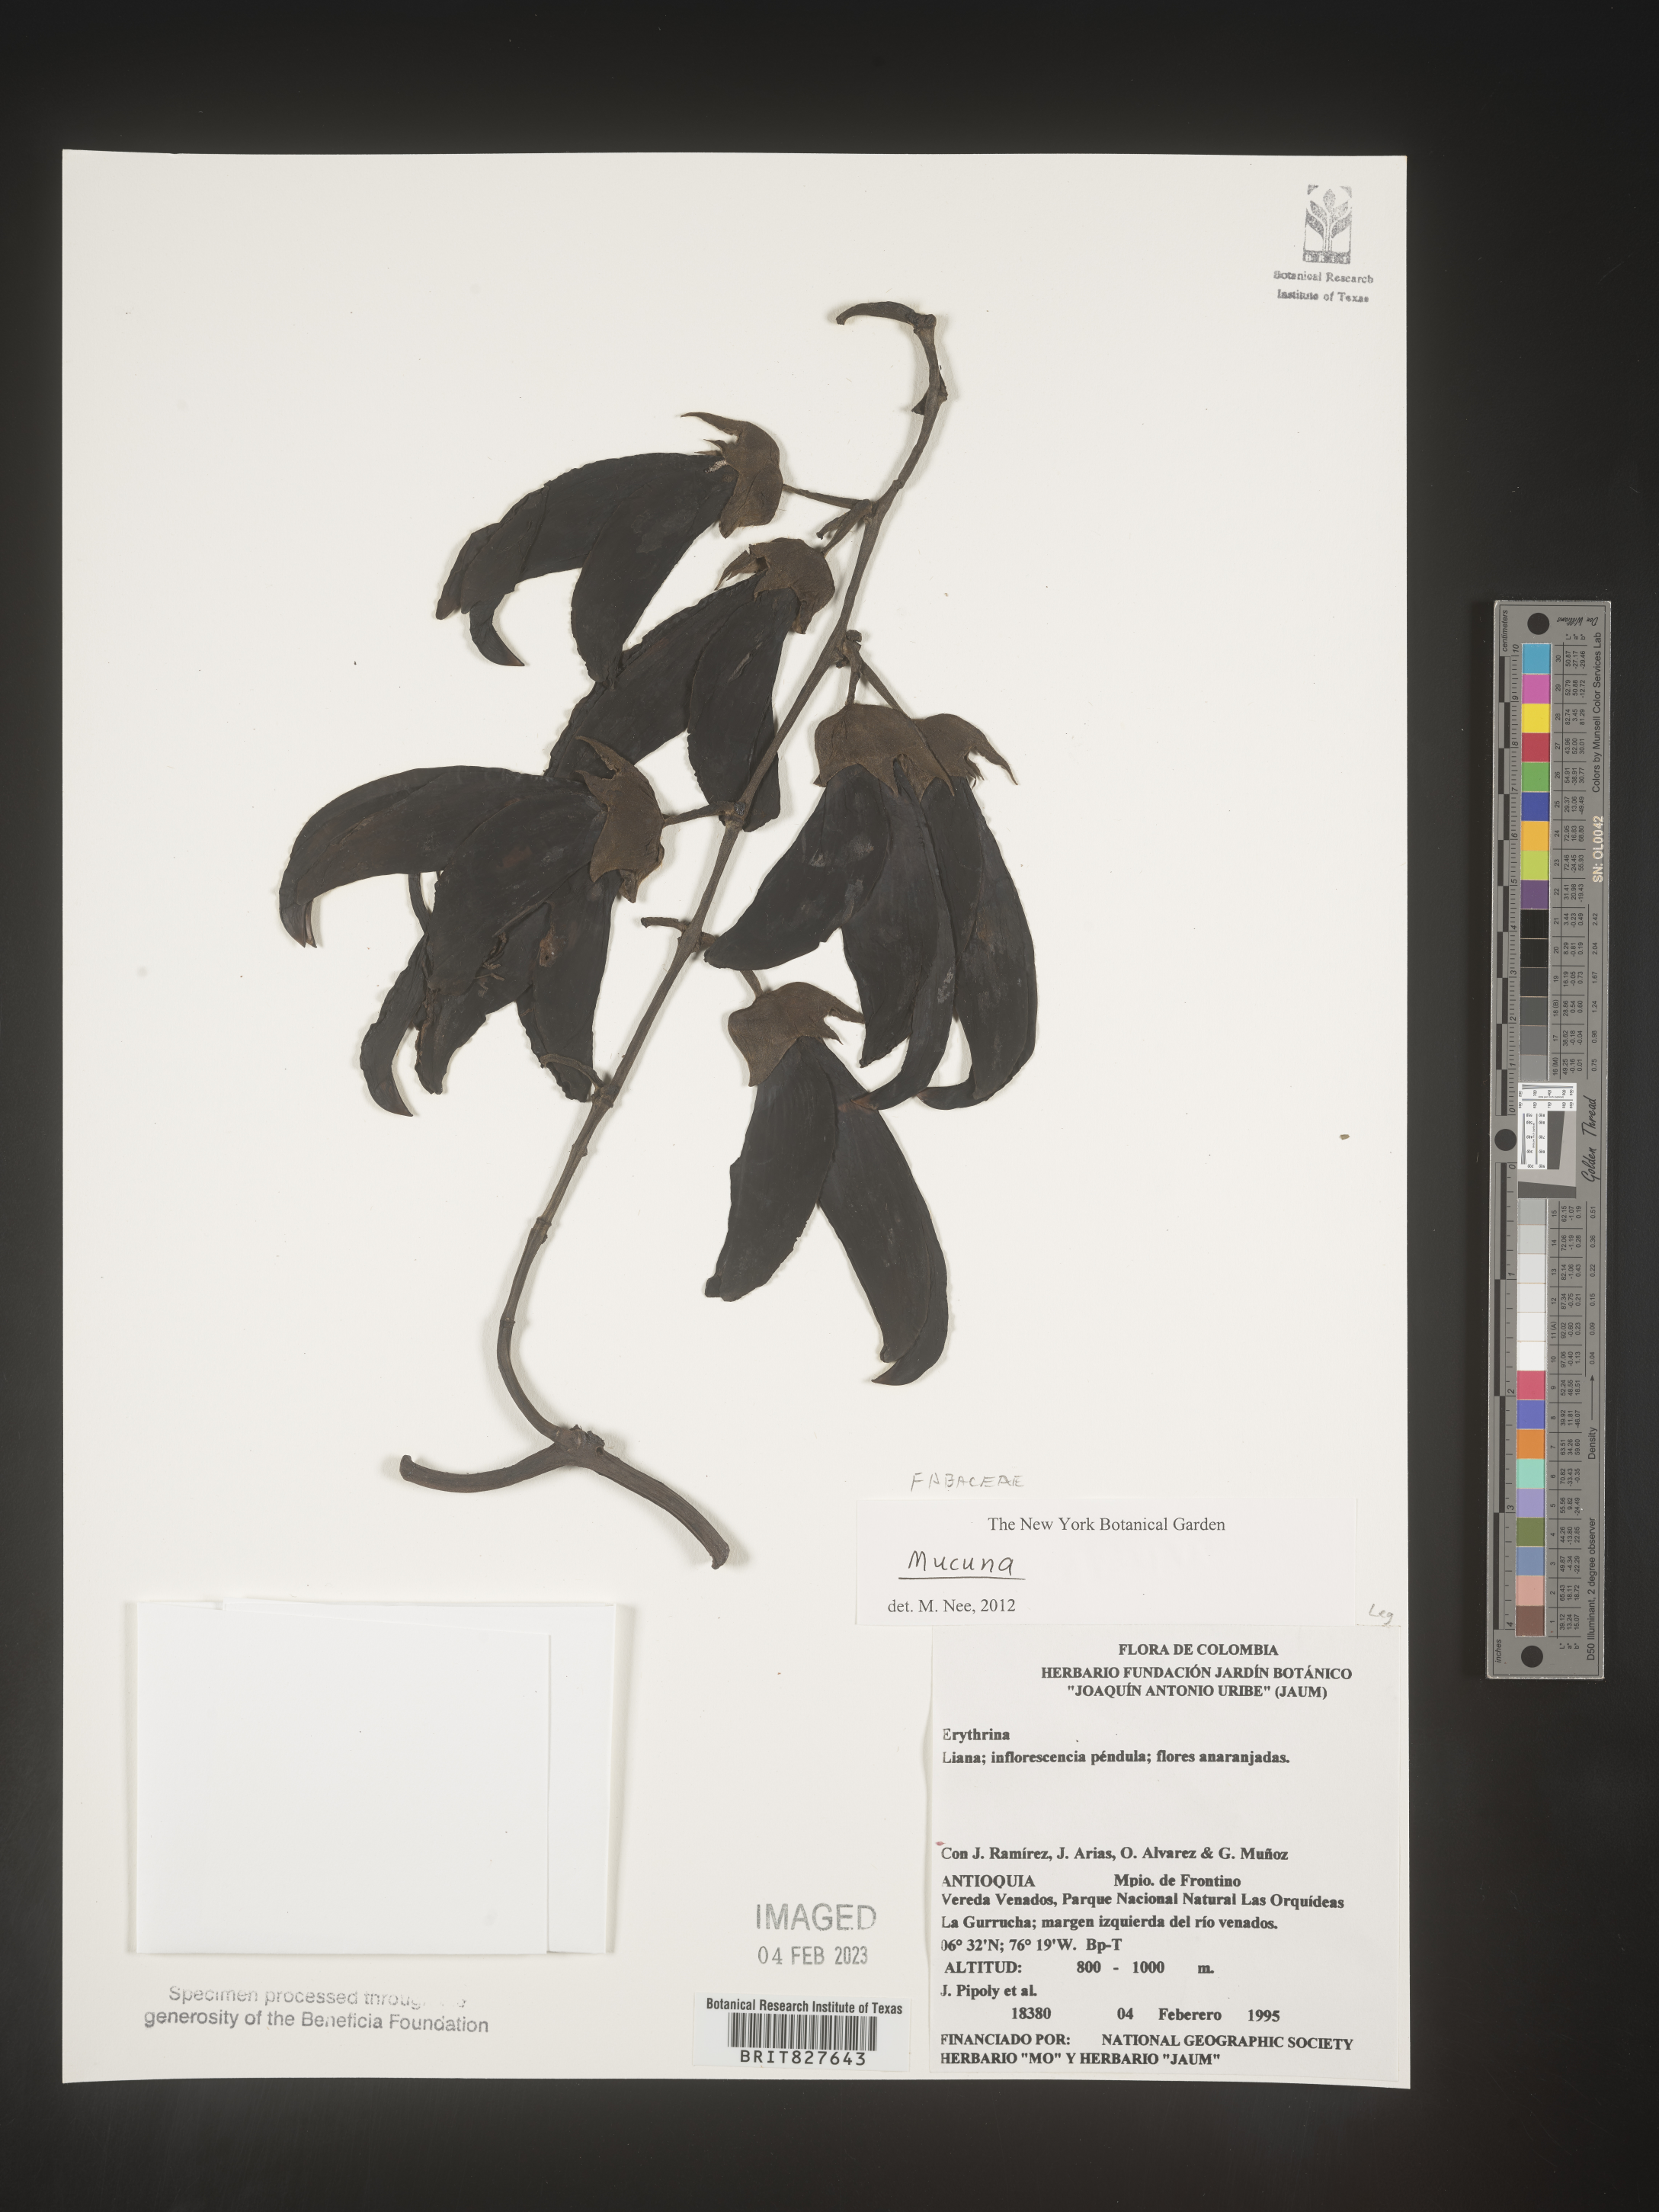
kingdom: Plantae
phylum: Tracheophyta
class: Magnoliopsida
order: Fabales
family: Fabaceae
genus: Mucuna
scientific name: Mucuna
